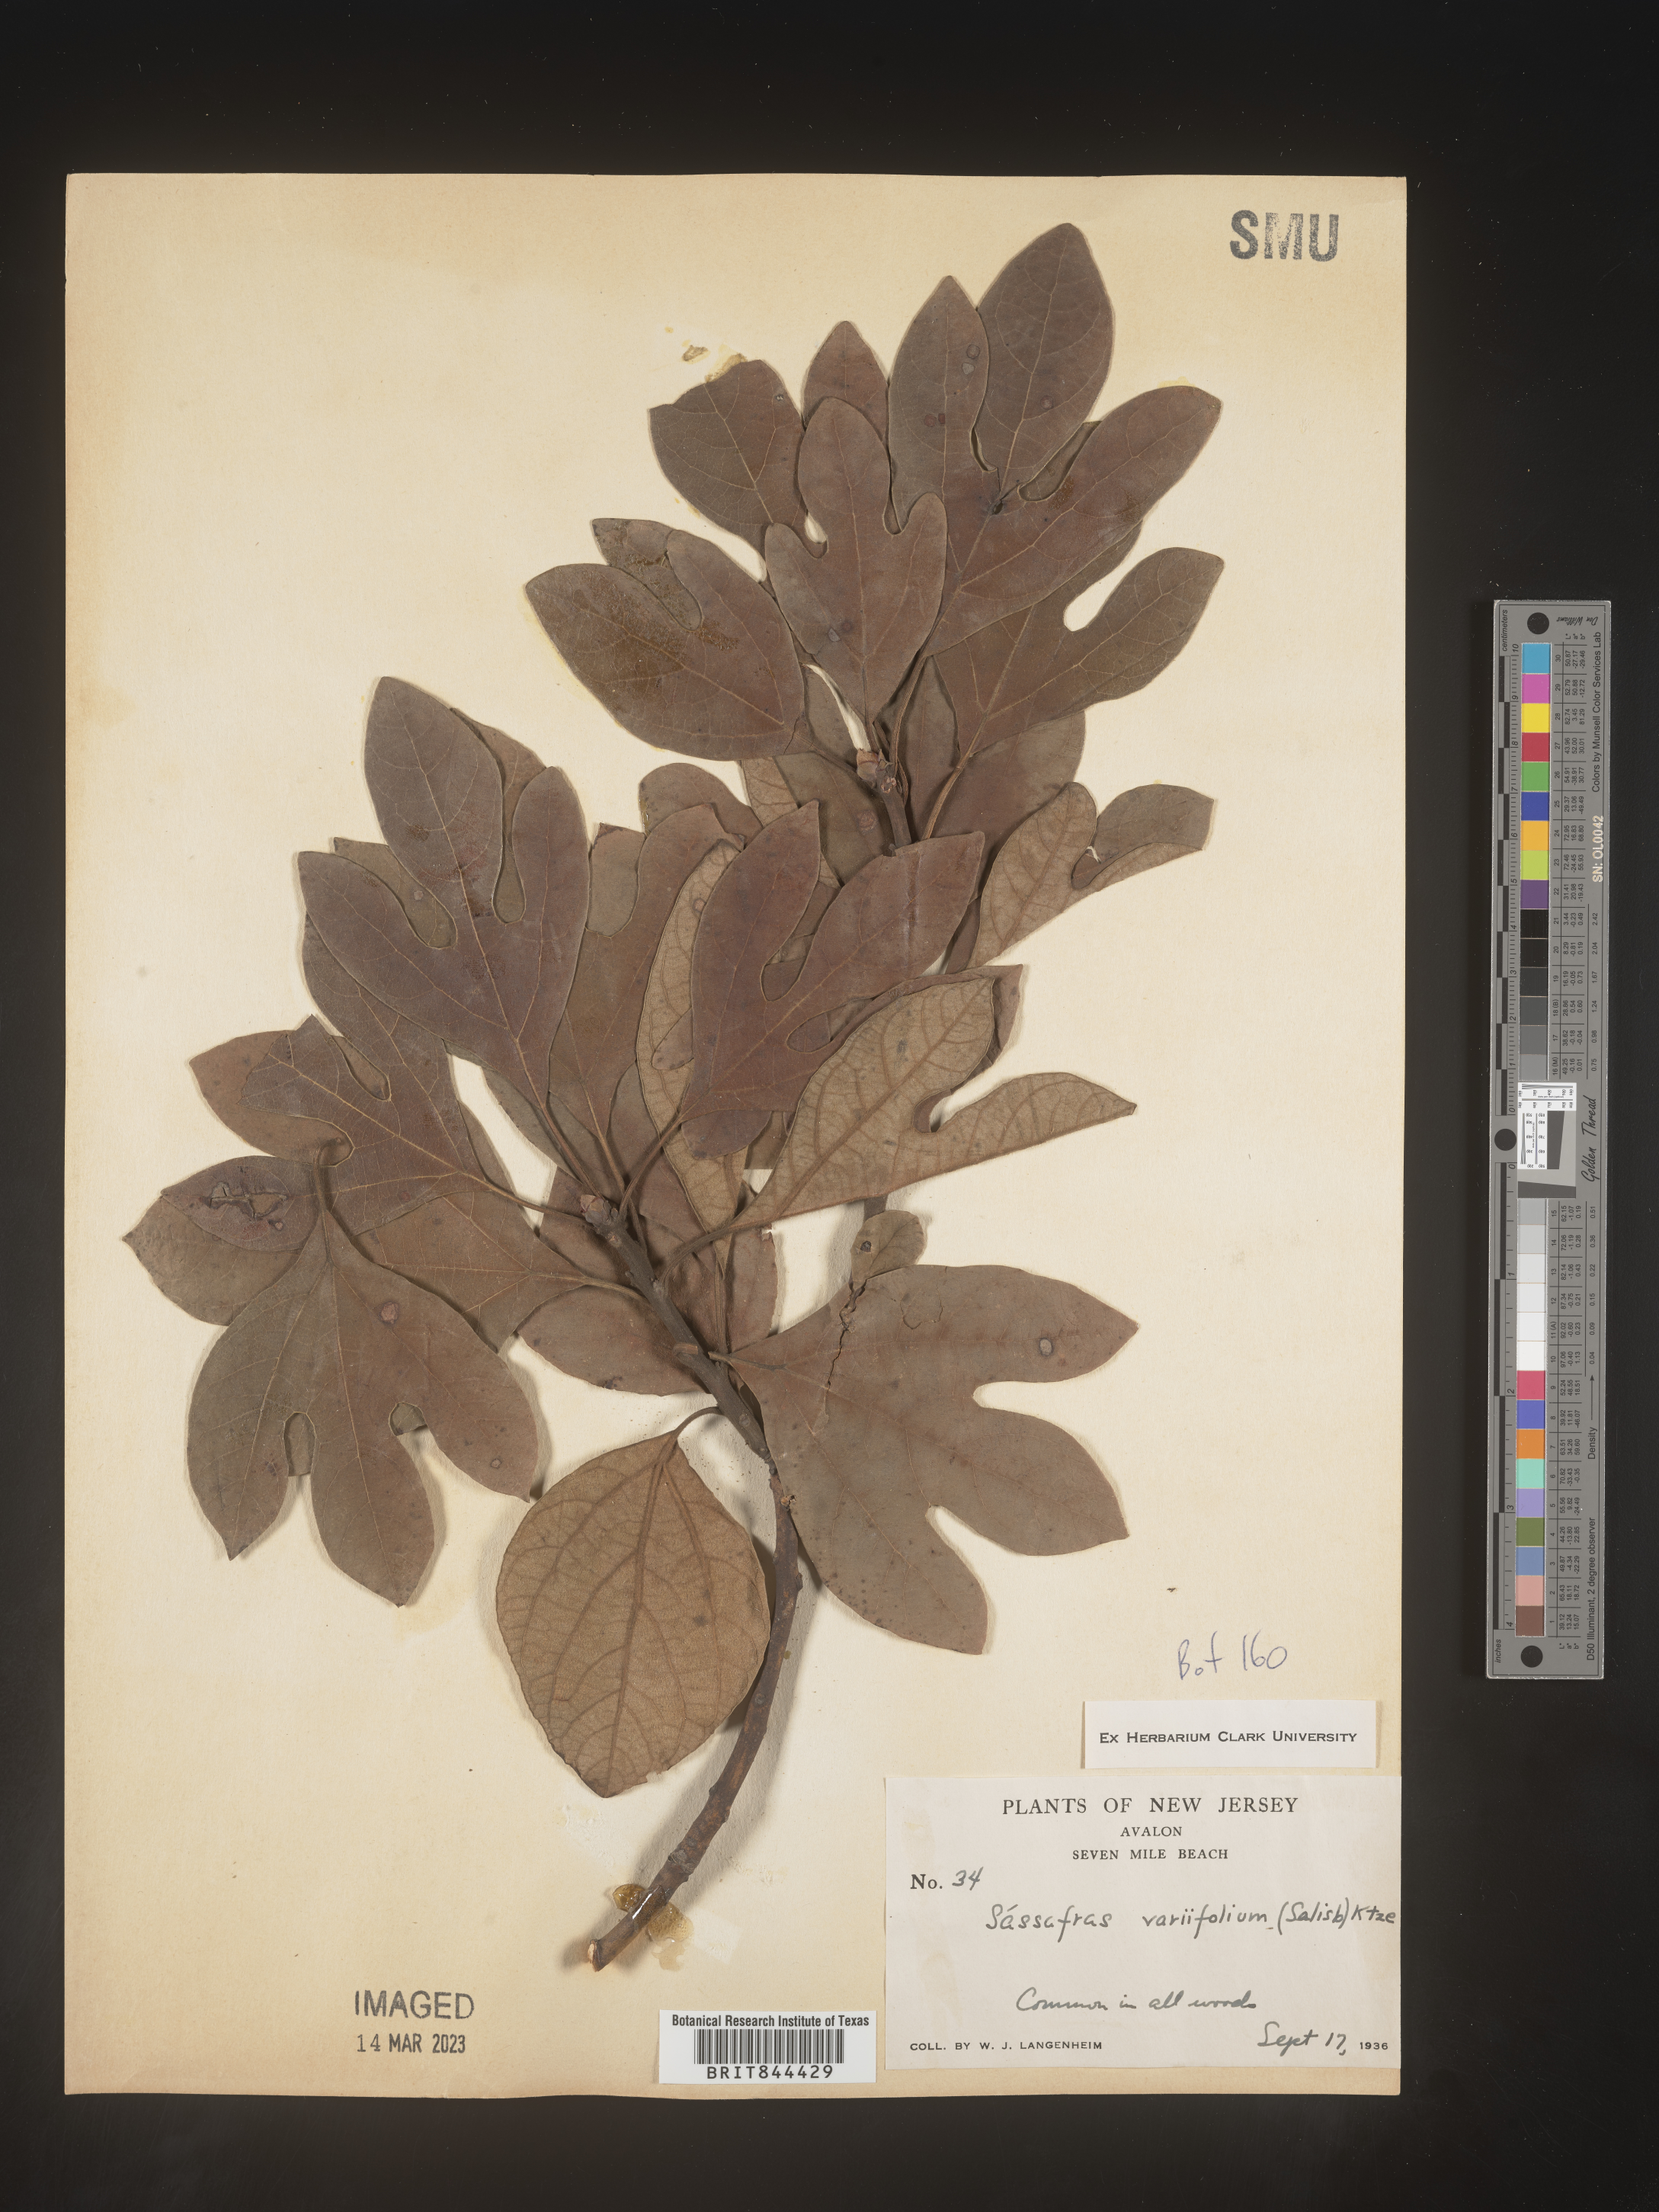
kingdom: Plantae
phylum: Tracheophyta
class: Magnoliopsida
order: Laurales
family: Lauraceae
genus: Sassafras
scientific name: Sassafras albidum
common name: Sassafras
